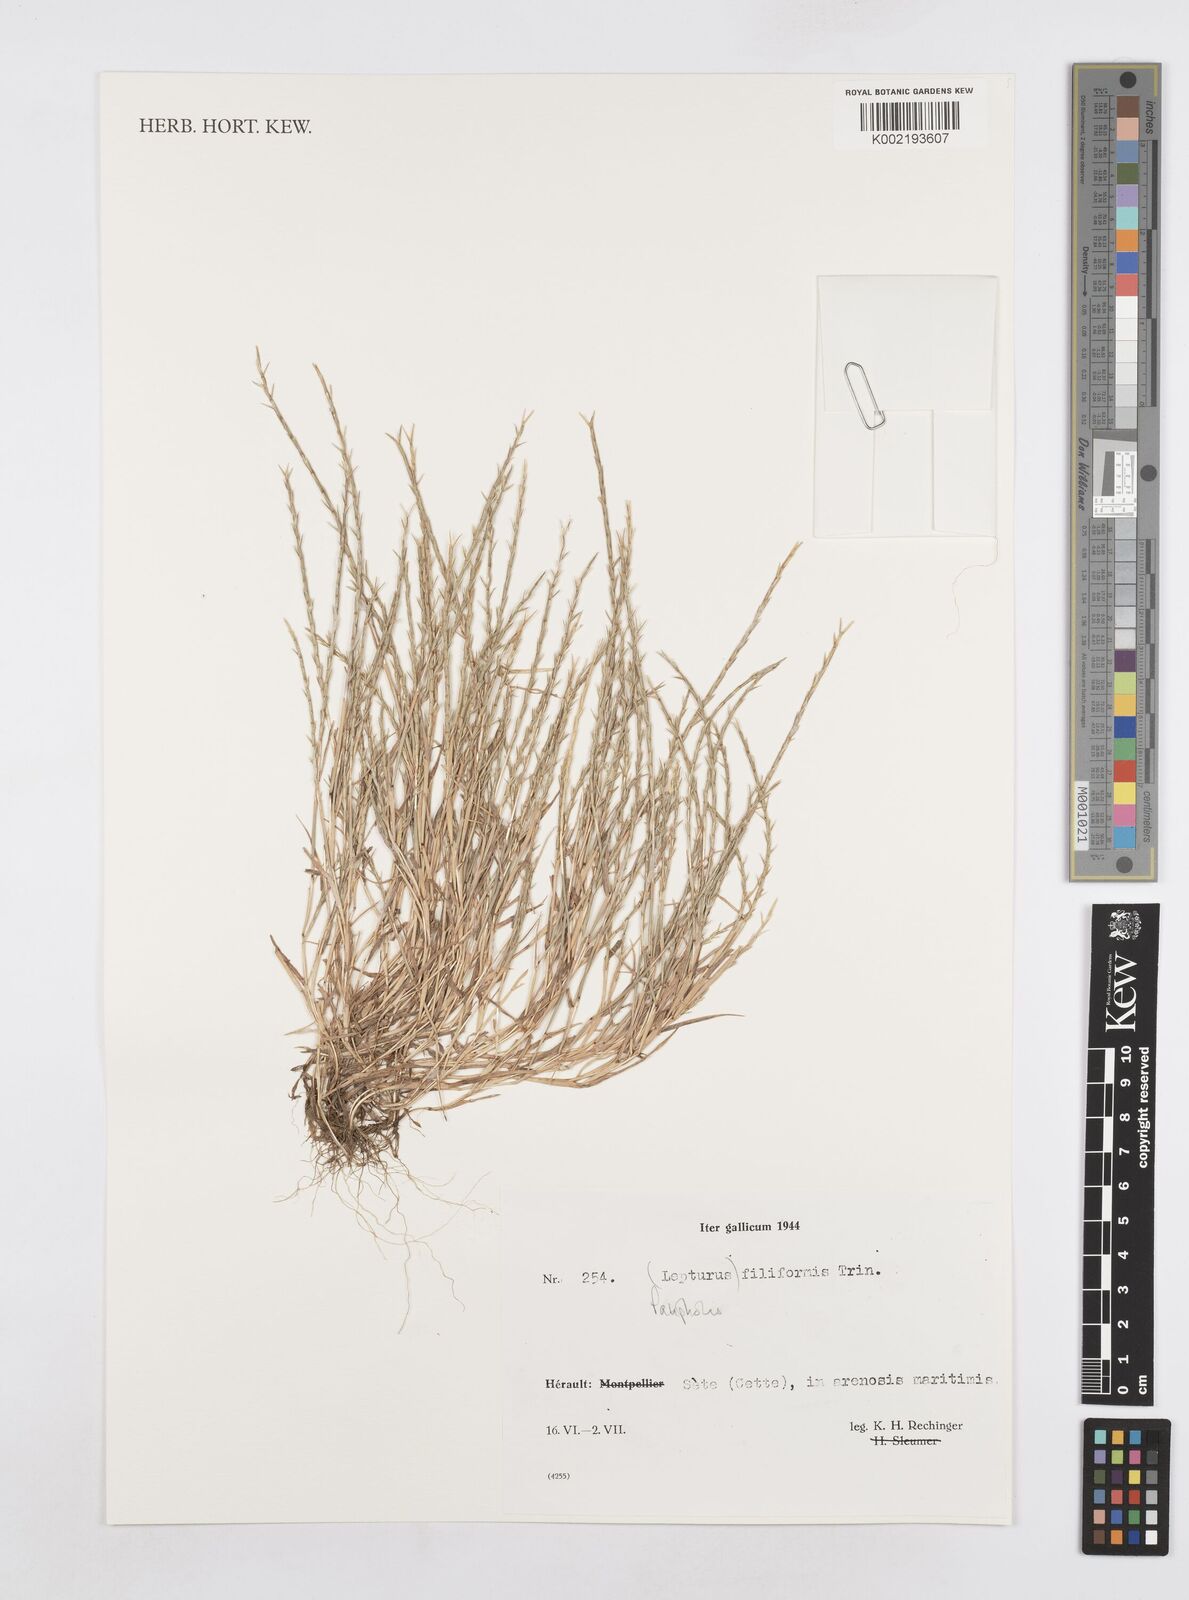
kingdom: Plantae
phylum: Tracheophyta
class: Liliopsida
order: Poales
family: Poaceae
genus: Parapholis
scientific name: Parapholis filiformis
